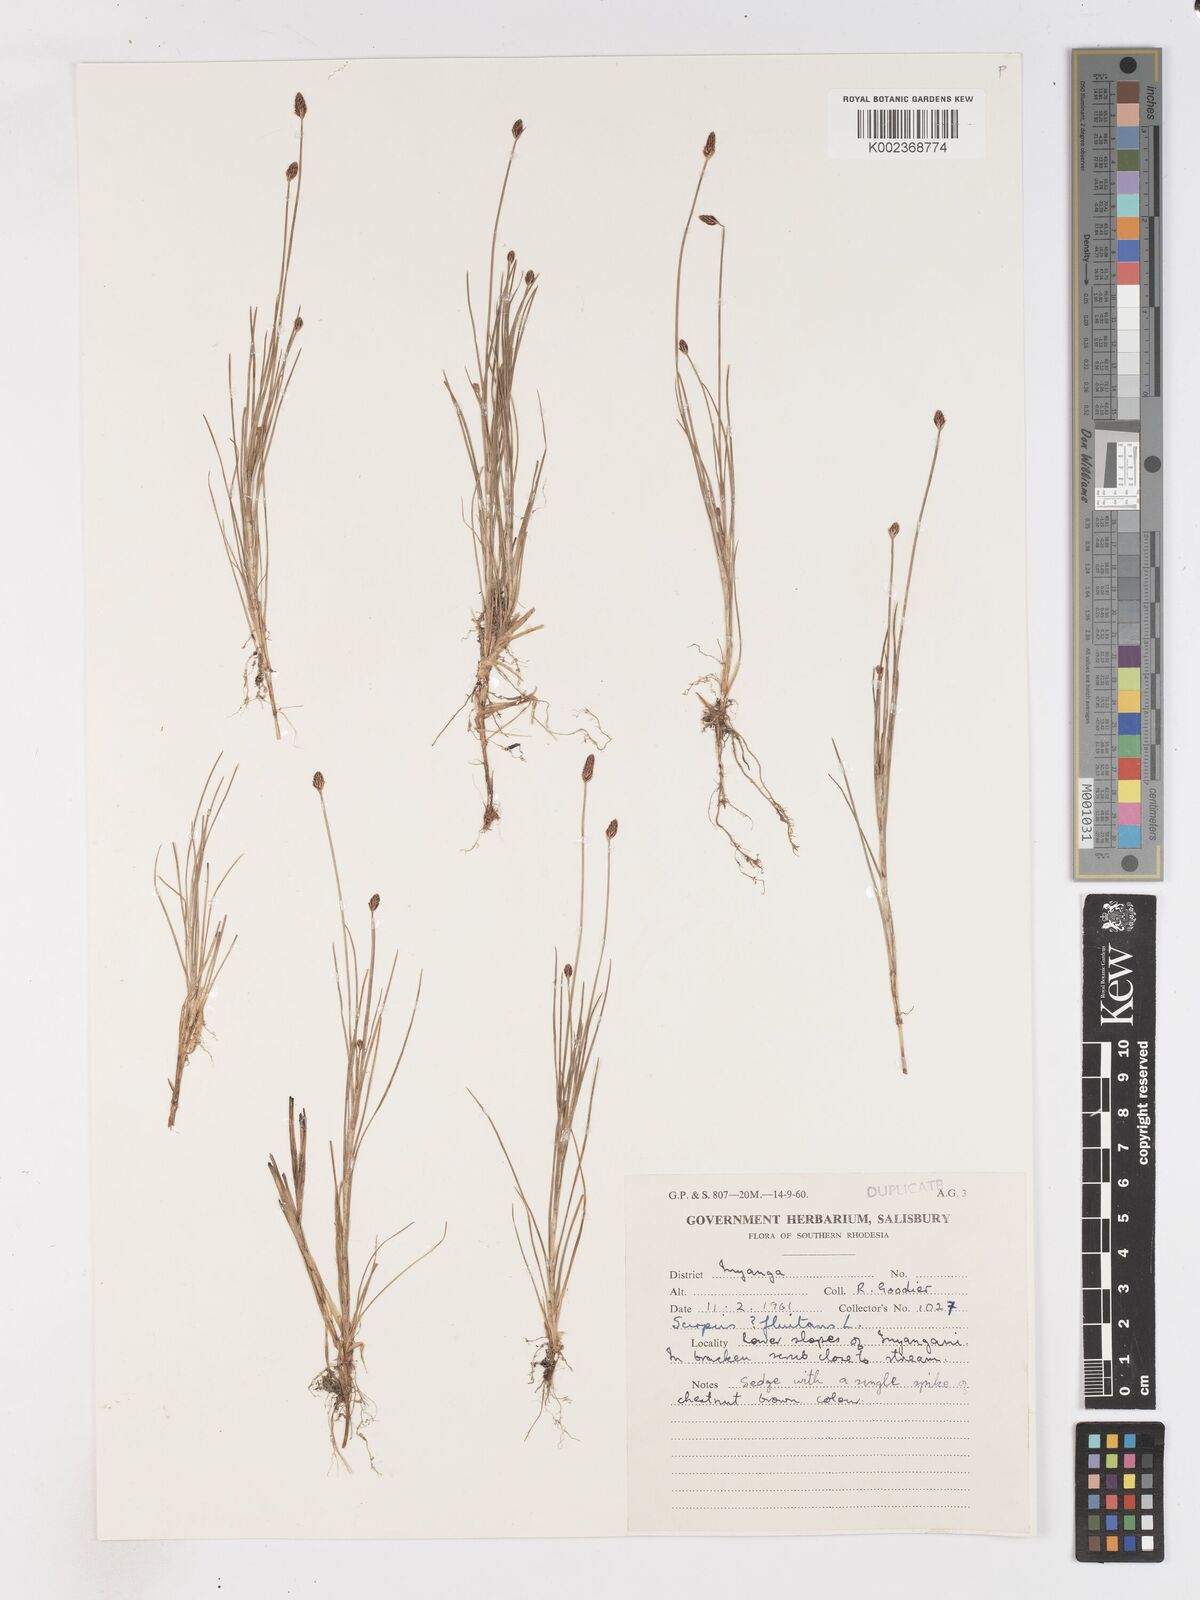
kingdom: Plantae
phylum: Tracheophyta
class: Liliopsida
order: Poales
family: Cyperaceae
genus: Isolepis
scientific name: Isolepis fluitans
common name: Floating club-rush
